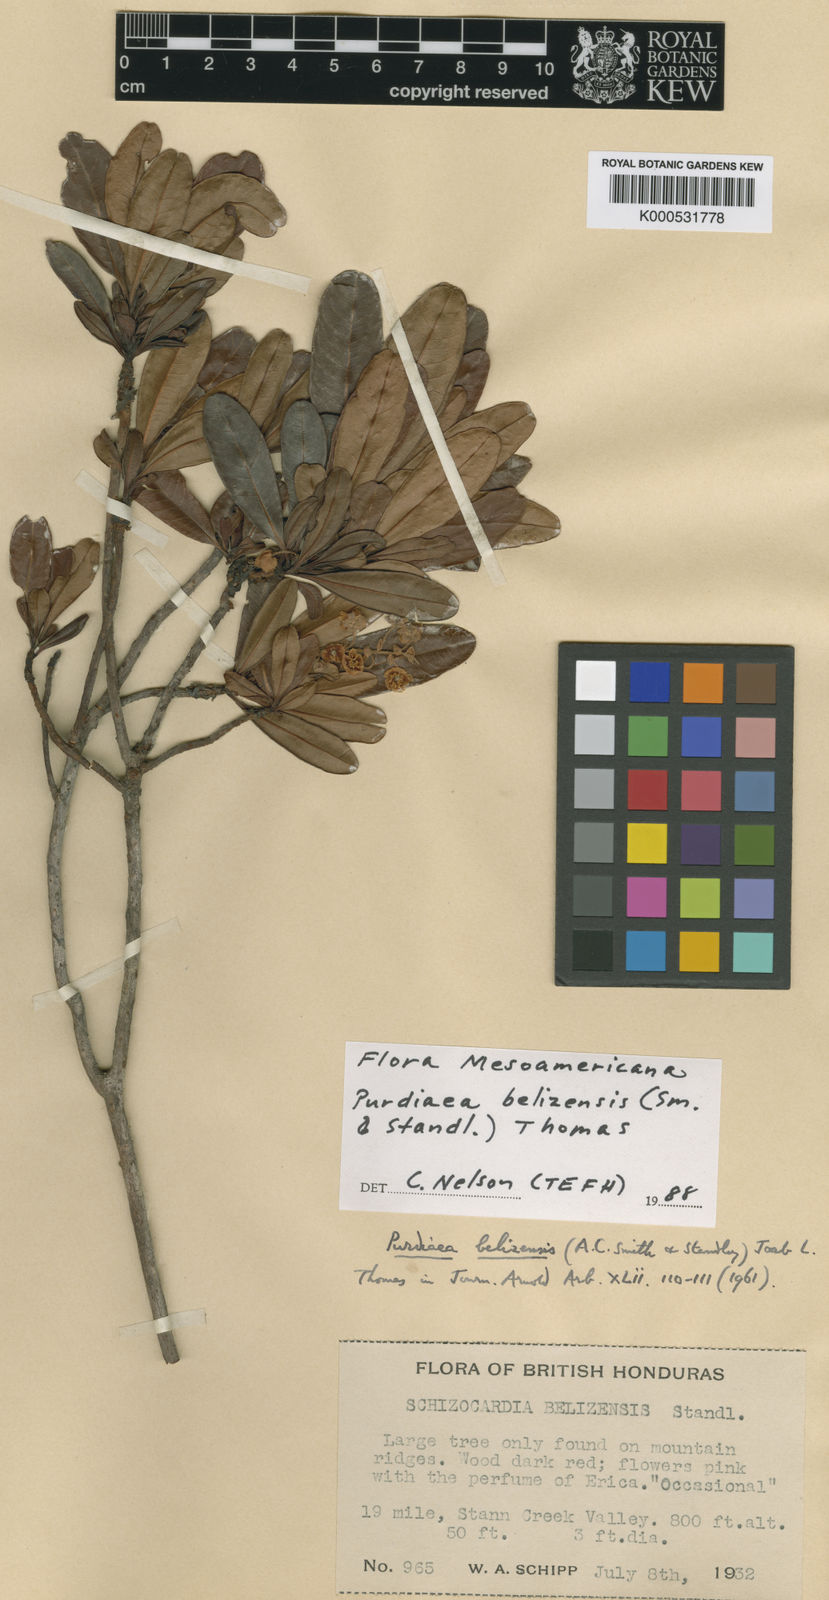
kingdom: Plantae
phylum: Tracheophyta
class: Magnoliopsida
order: Ericales
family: Clethraceae
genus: Purdiaea
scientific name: Purdiaea belizensis
